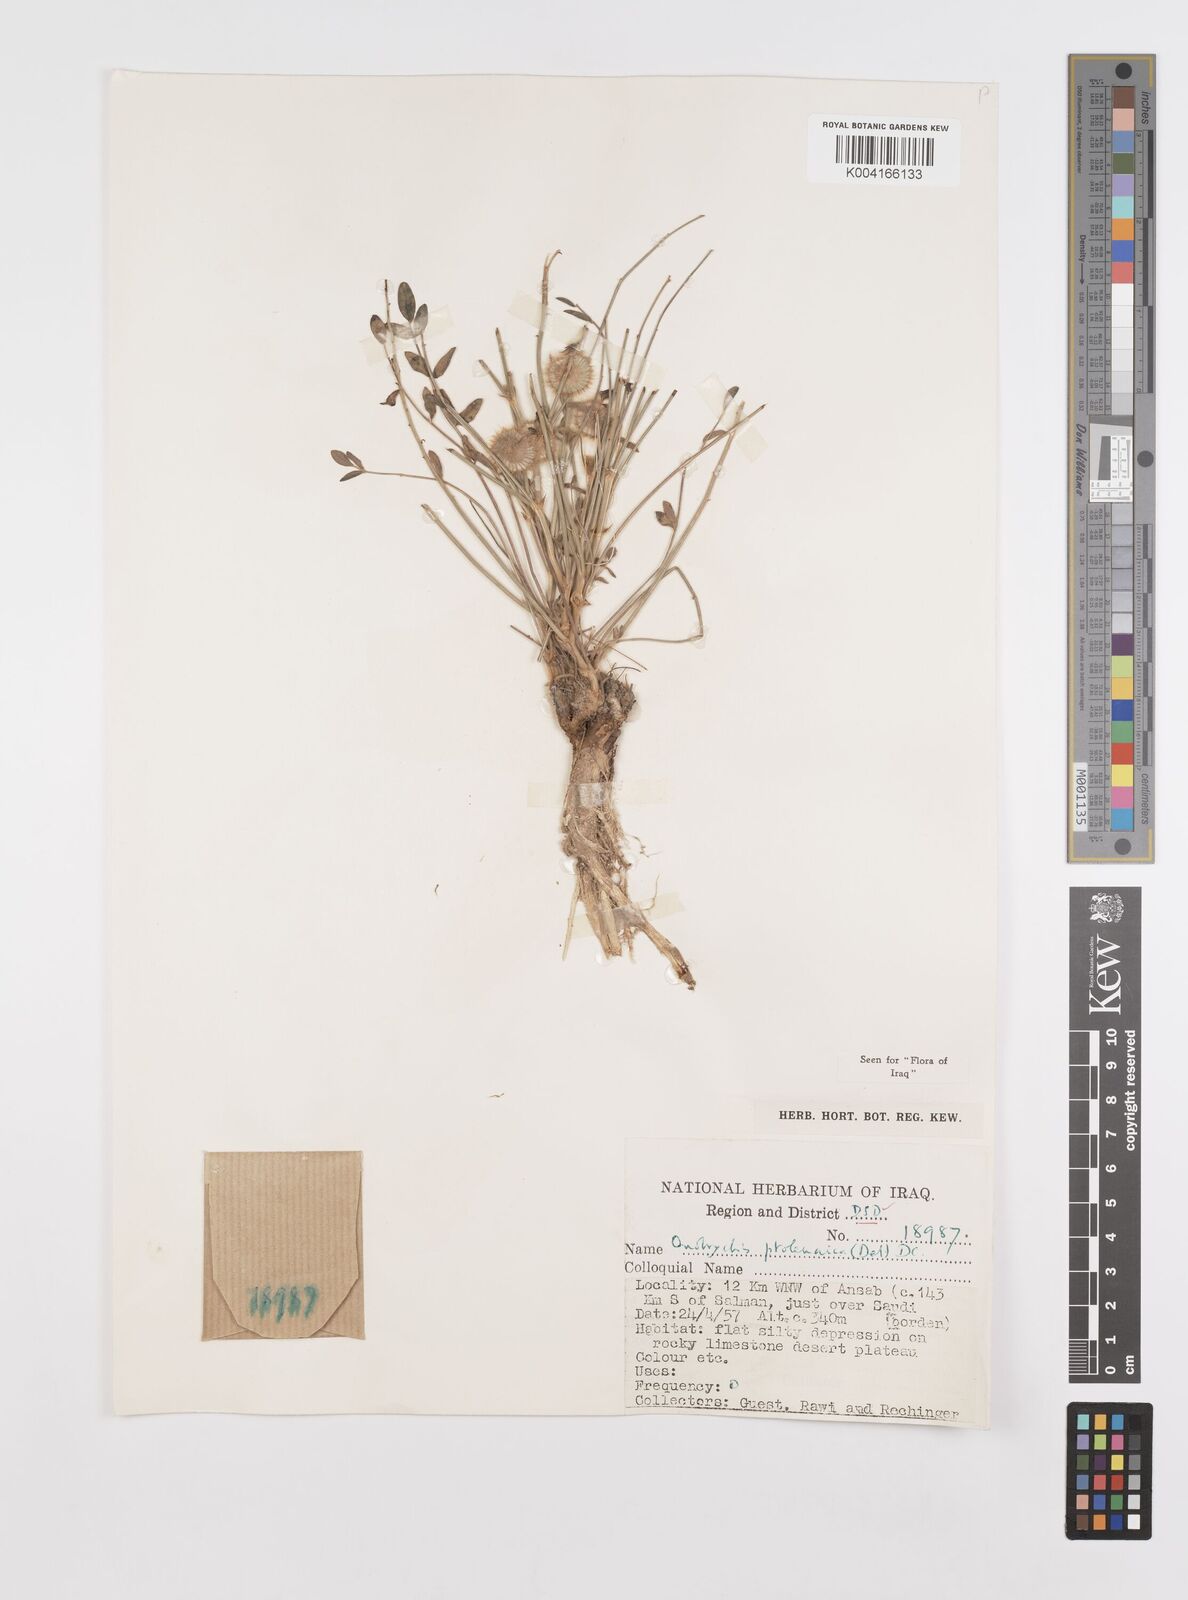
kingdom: Plantae
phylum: Tracheophyta
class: Magnoliopsida
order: Fabales
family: Fabaceae
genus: Onobrychis
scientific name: Onobrychis ptolemaica
